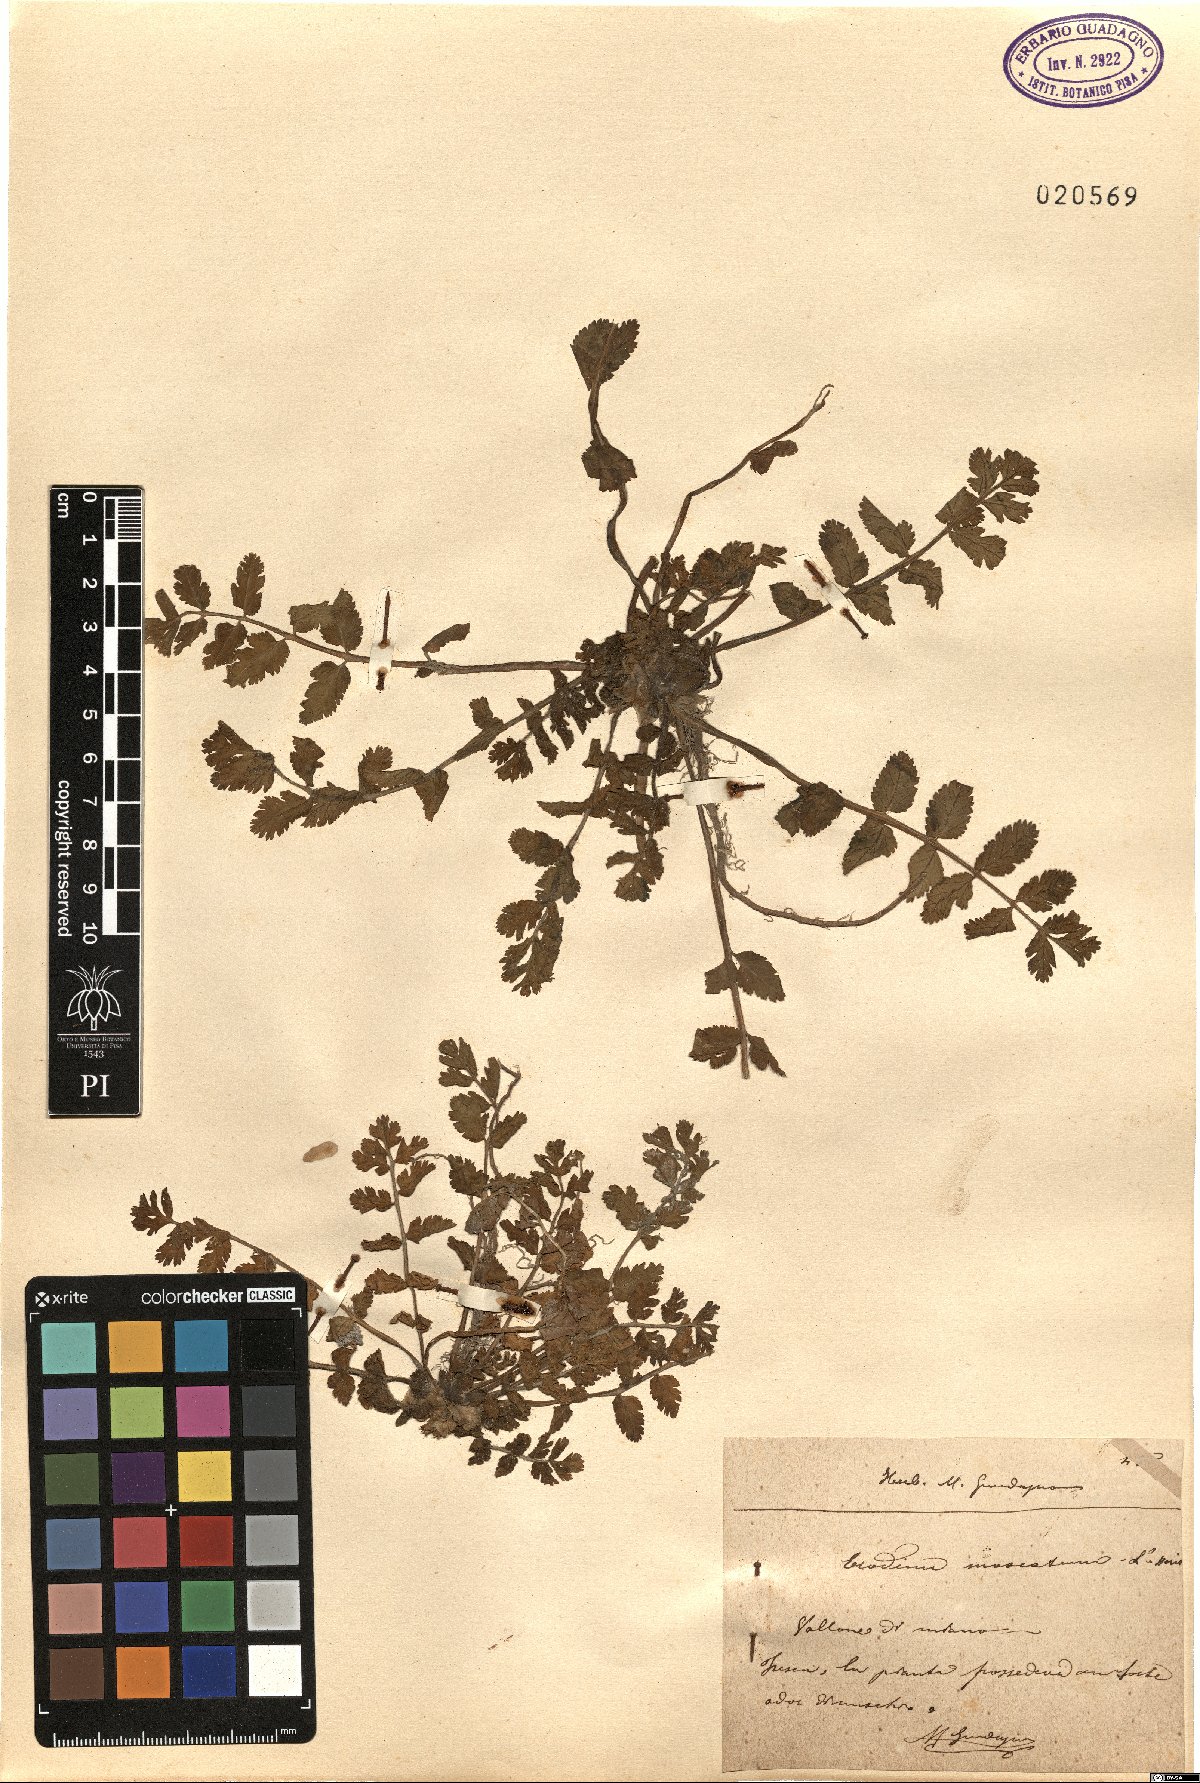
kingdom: Plantae
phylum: Tracheophyta
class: Magnoliopsida
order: Geraniales
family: Geraniaceae
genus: Erodium
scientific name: Erodium moschatum
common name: Musk stork's-bill
